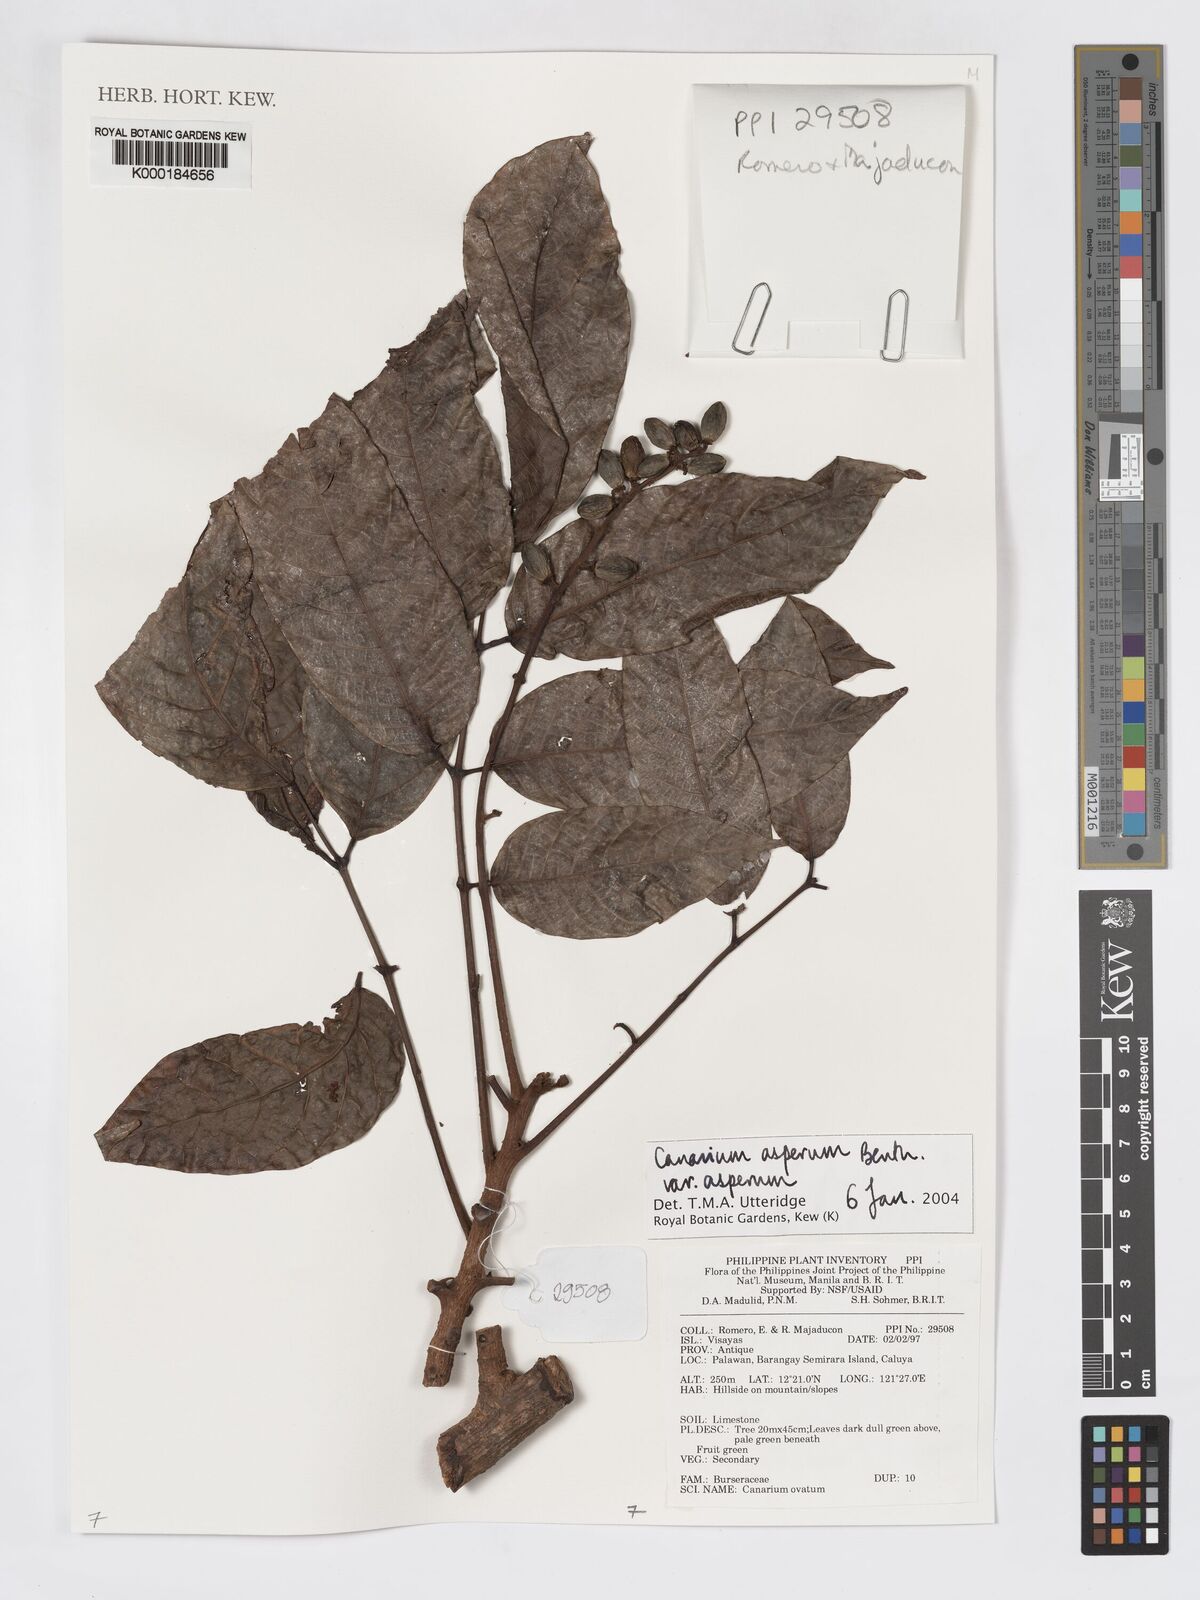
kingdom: Plantae
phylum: Tracheophyta
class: Magnoliopsida
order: Sapindales
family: Burseraceae
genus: Canarium
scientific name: Canarium asperum
